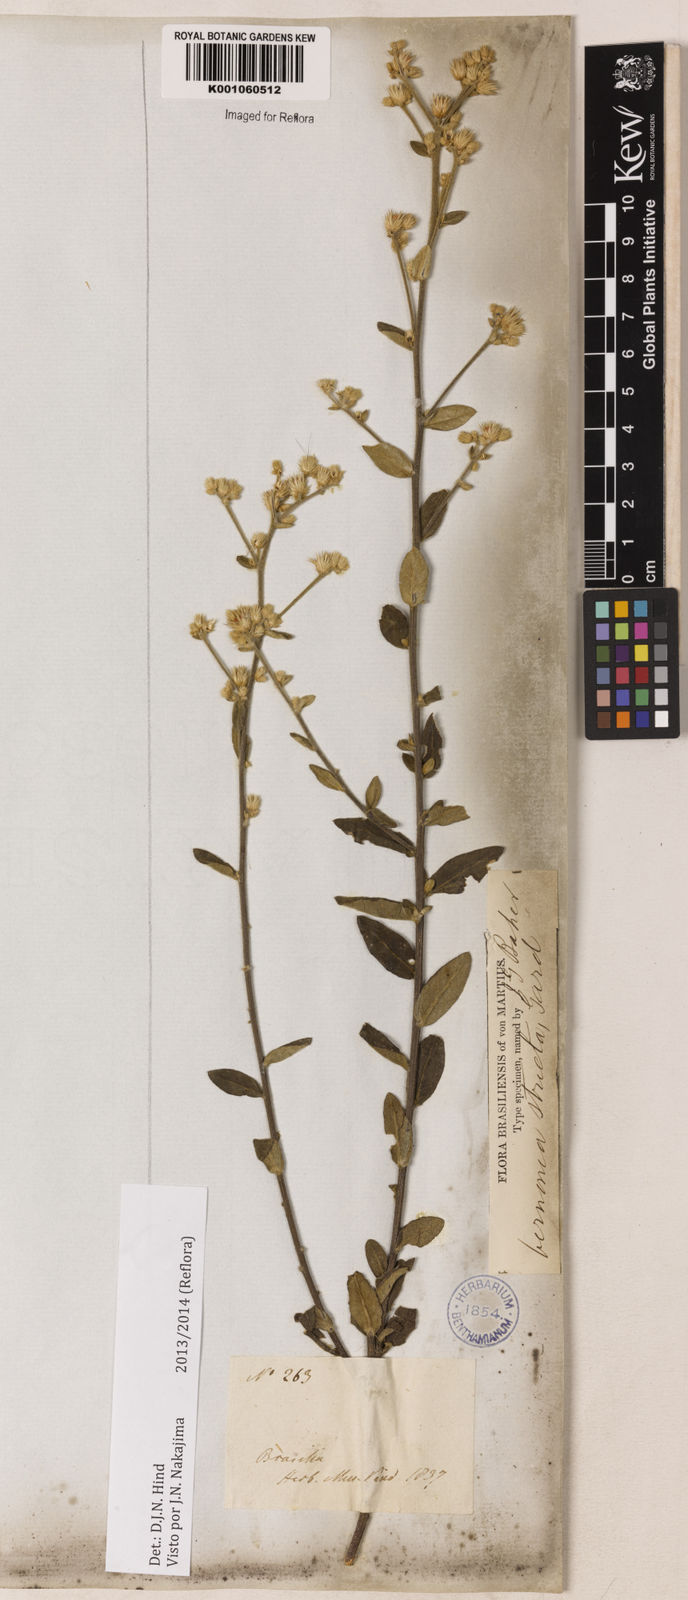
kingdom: Plantae
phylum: Tracheophyta
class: Magnoliopsida
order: Asterales
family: Asteraceae
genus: Echinocoryne
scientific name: Echinocoryne stricta
